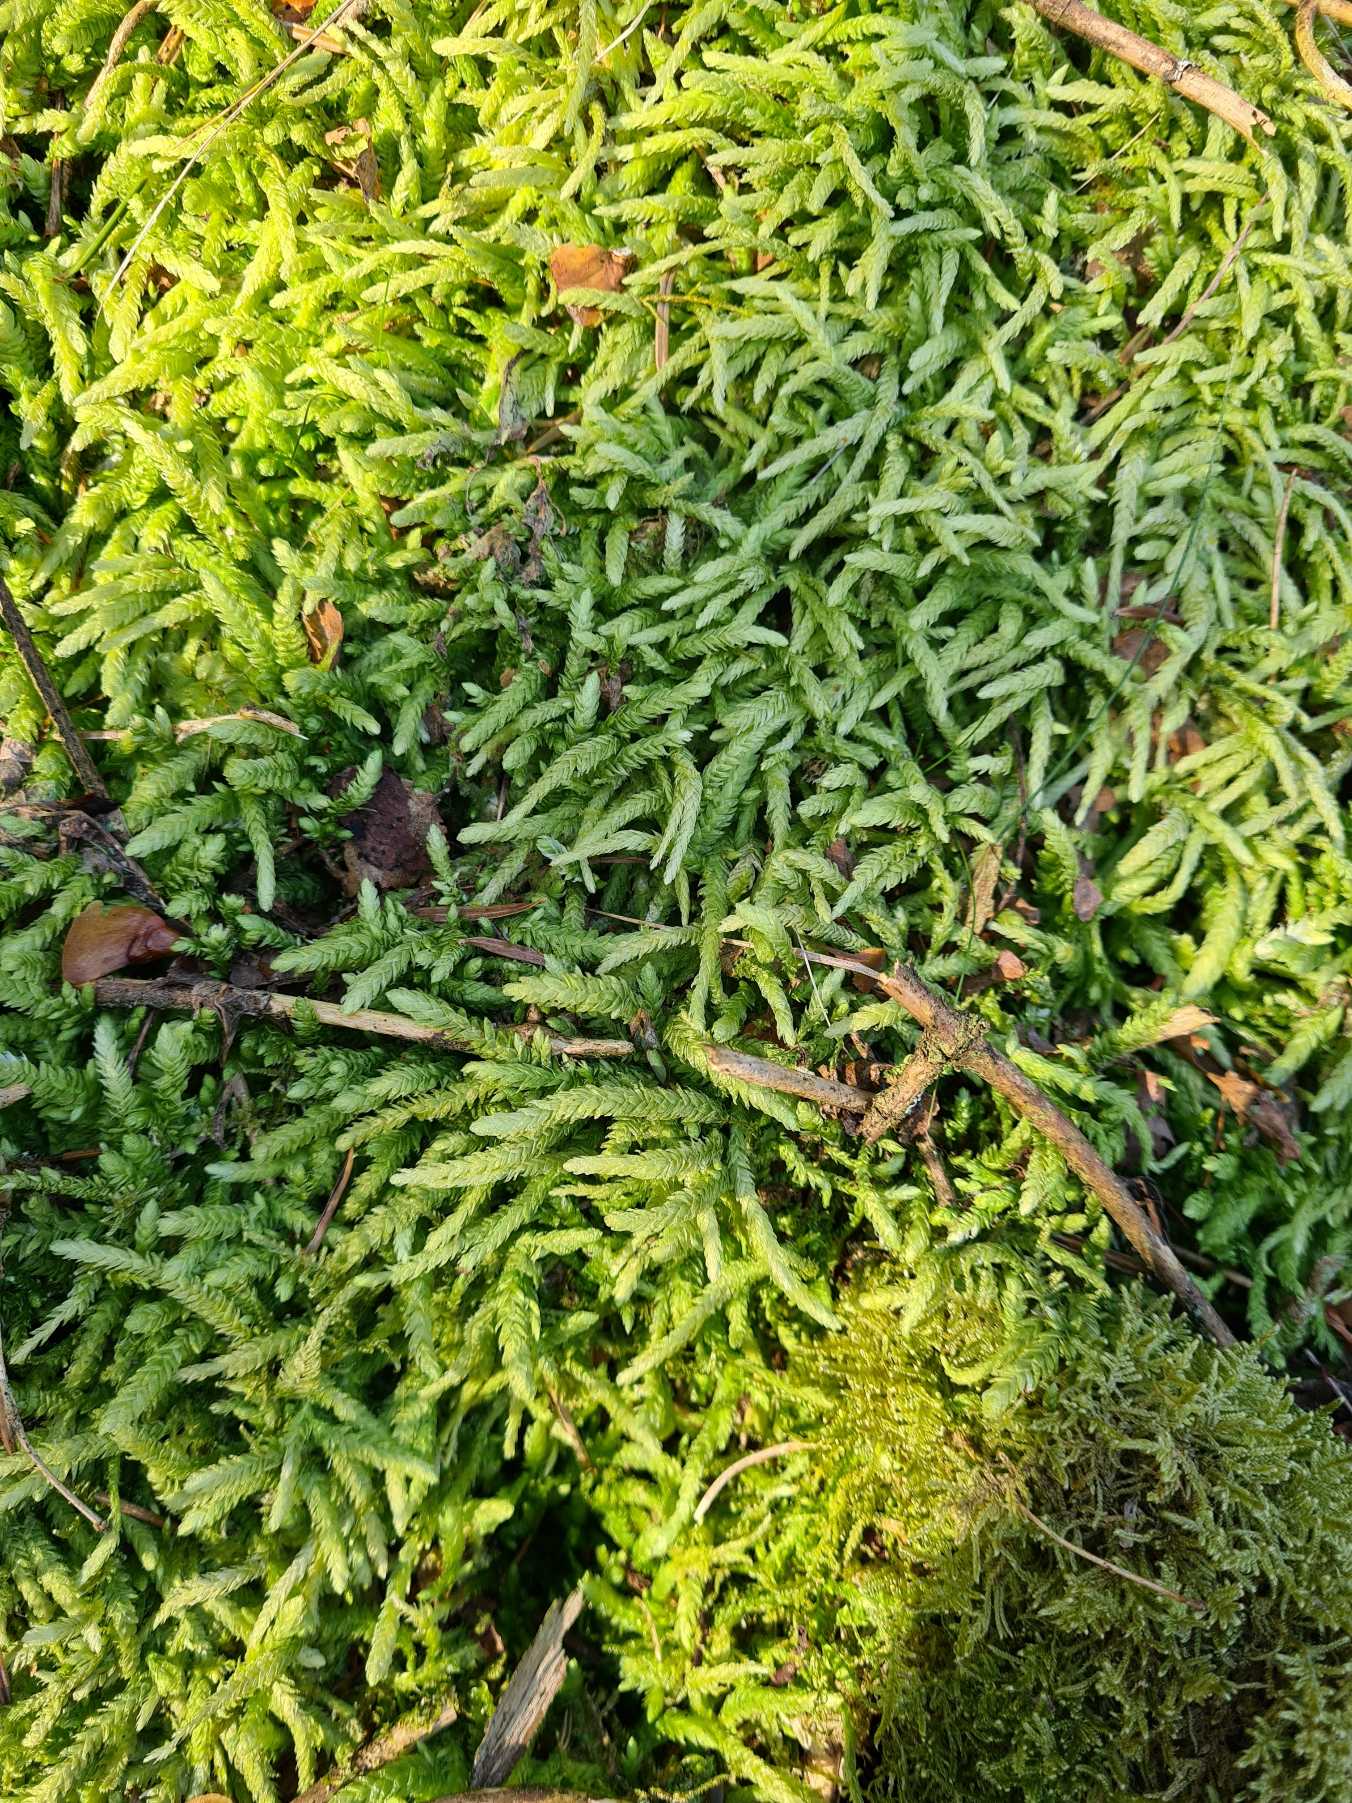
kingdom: Plantae
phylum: Bryophyta
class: Bryopsida
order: Hypnales
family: Plagiotheciaceae
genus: Plagiothecium
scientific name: Plagiothecium undulatum
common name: Bølget tæppemos
